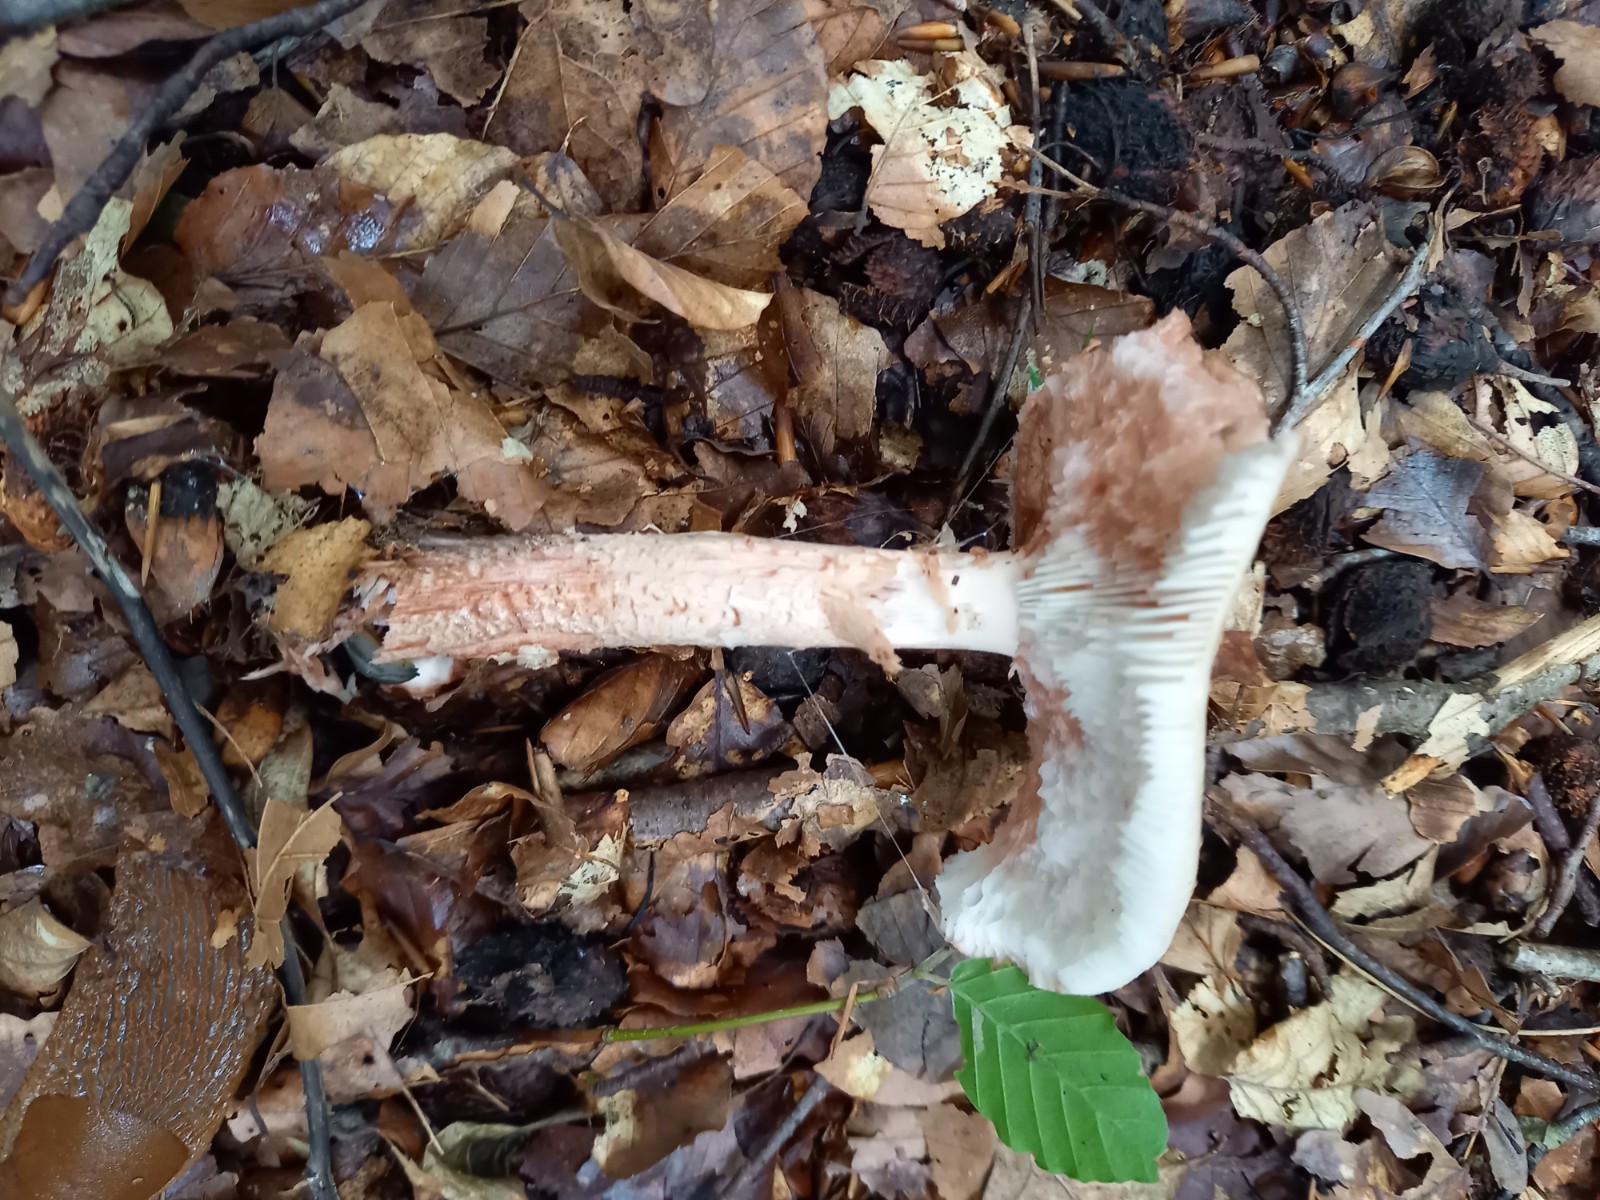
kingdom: Fungi
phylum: Basidiomycota
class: Agaricomycetes
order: Agaricales
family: Amanitaceae
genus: Amanita
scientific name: Amanita rubescens
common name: rødmende fluesvamp
